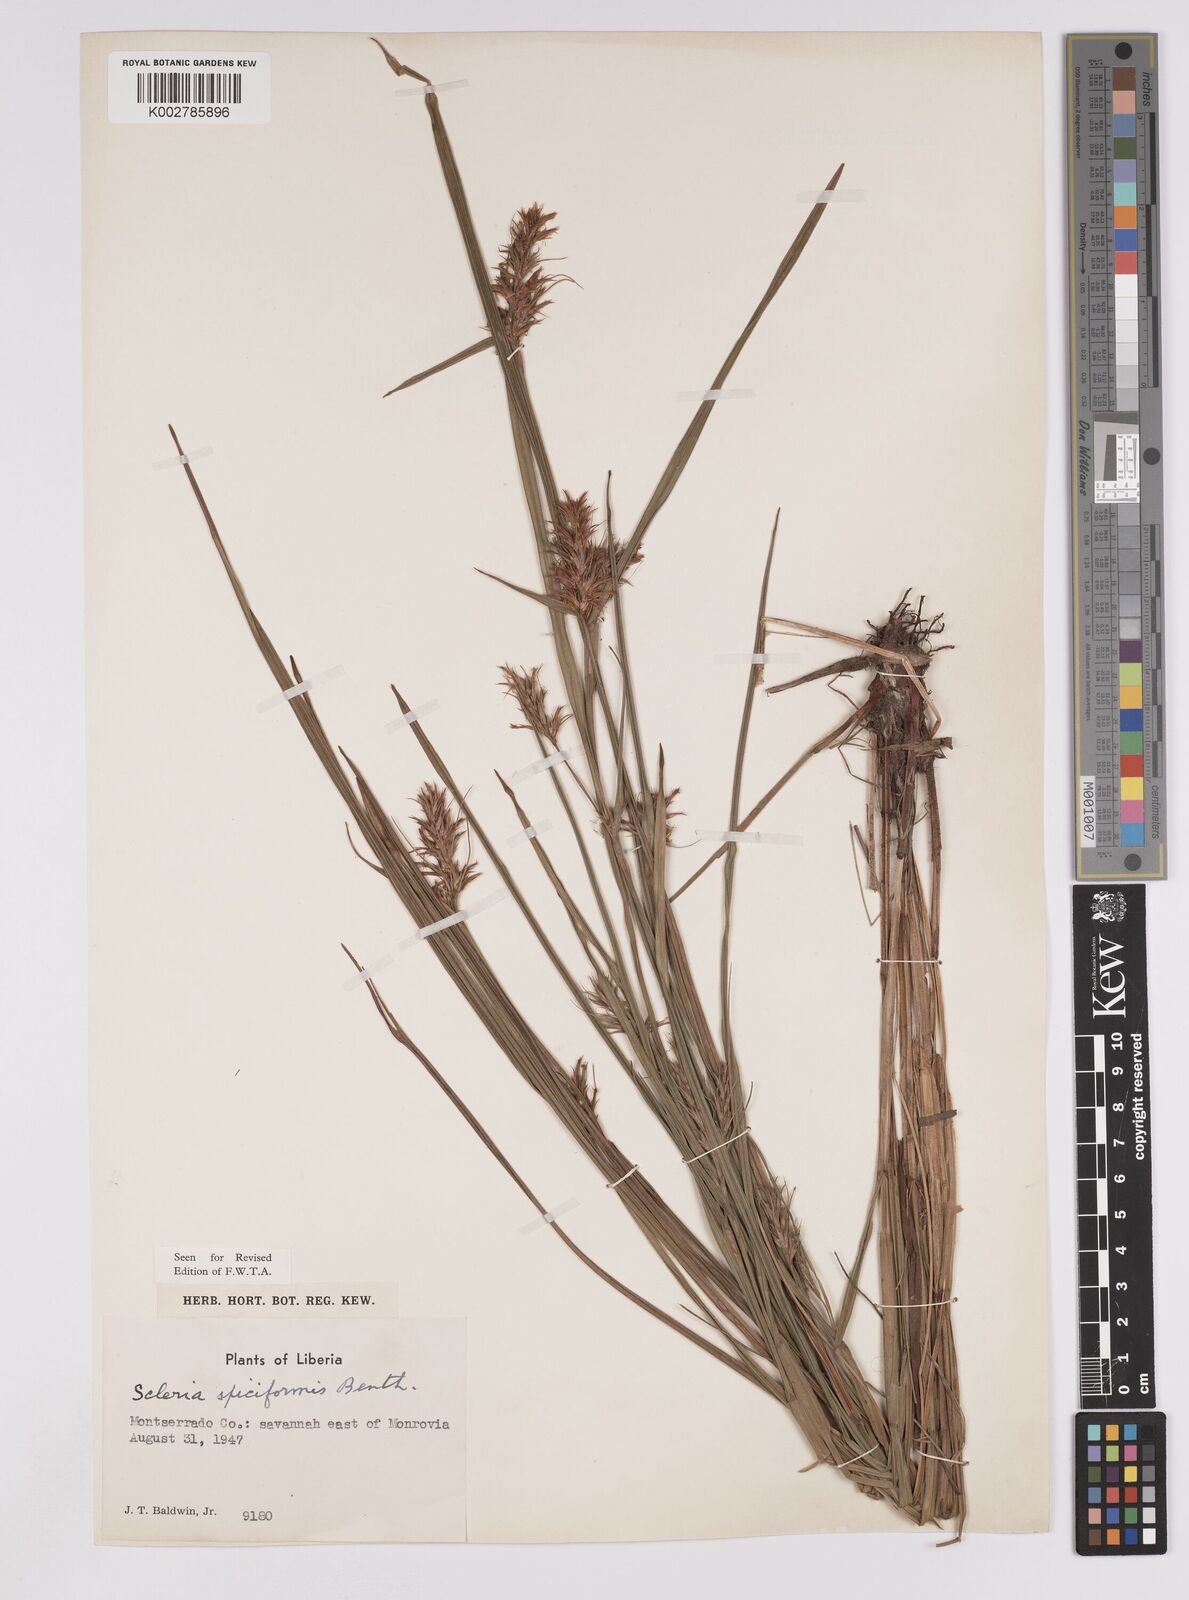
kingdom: Plantae
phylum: Tracheophyta
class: Liliopsida
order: Poales
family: Cyperaceae
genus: Scleria
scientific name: Scleria spiciformis
